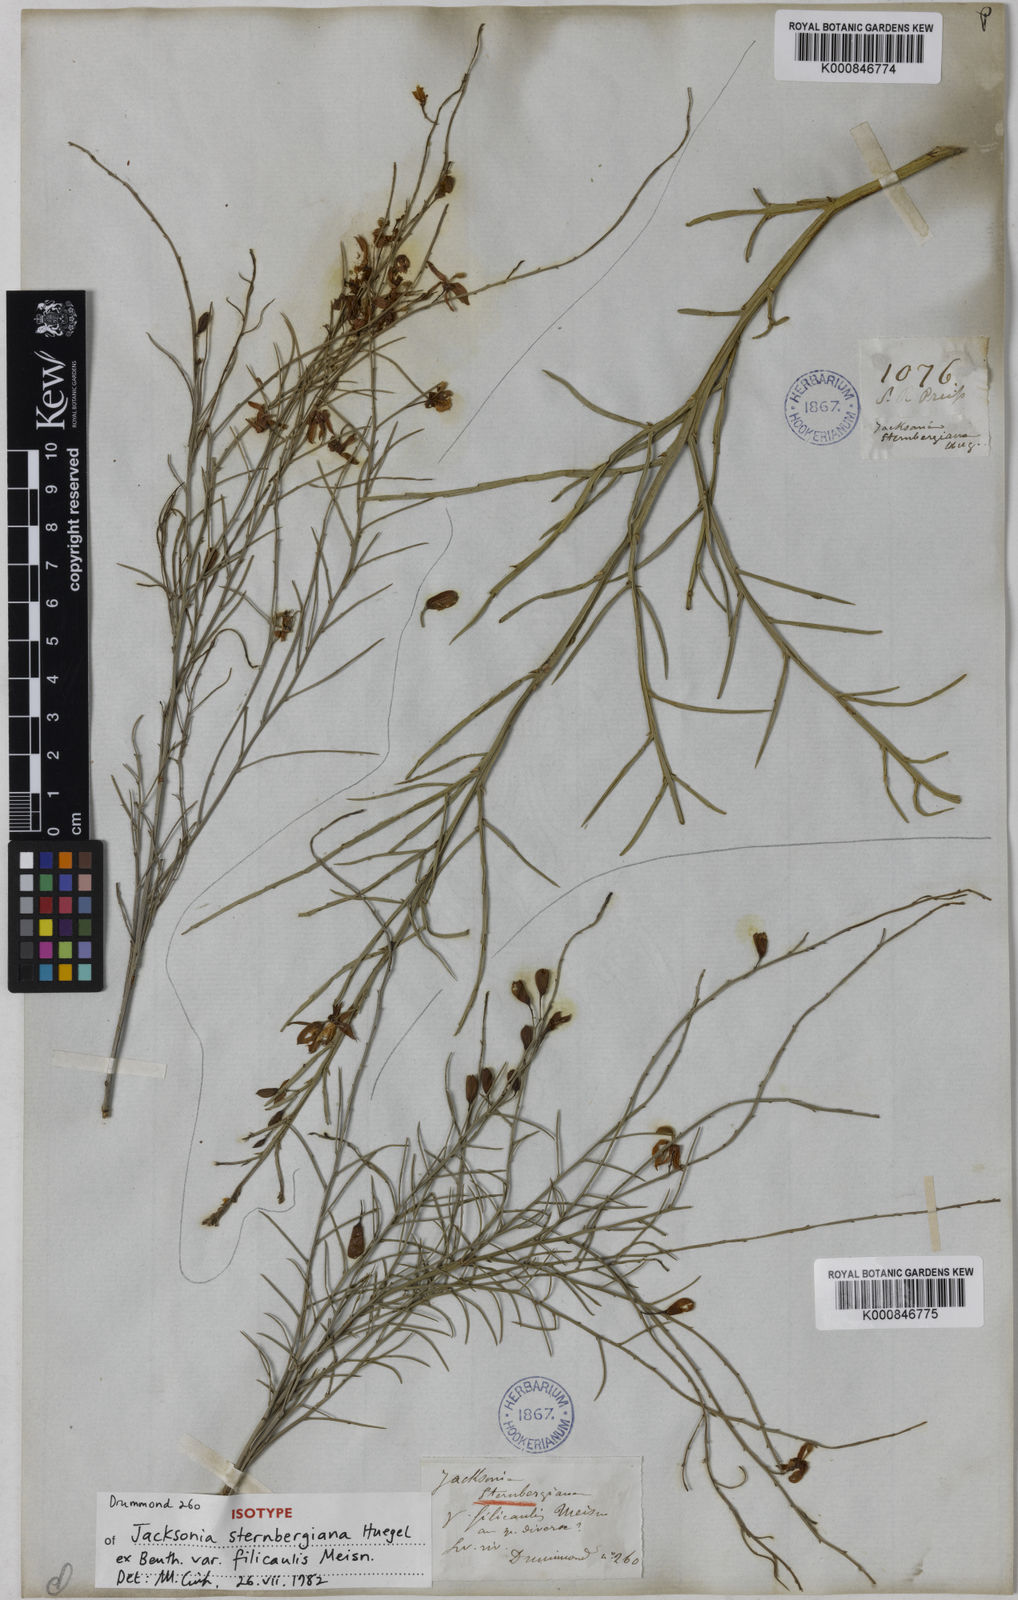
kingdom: Plantae
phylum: Tracheophyta
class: Magnoliopsida
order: Fabales
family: Fabaceae
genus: Jacksonia
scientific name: Jacksonia
